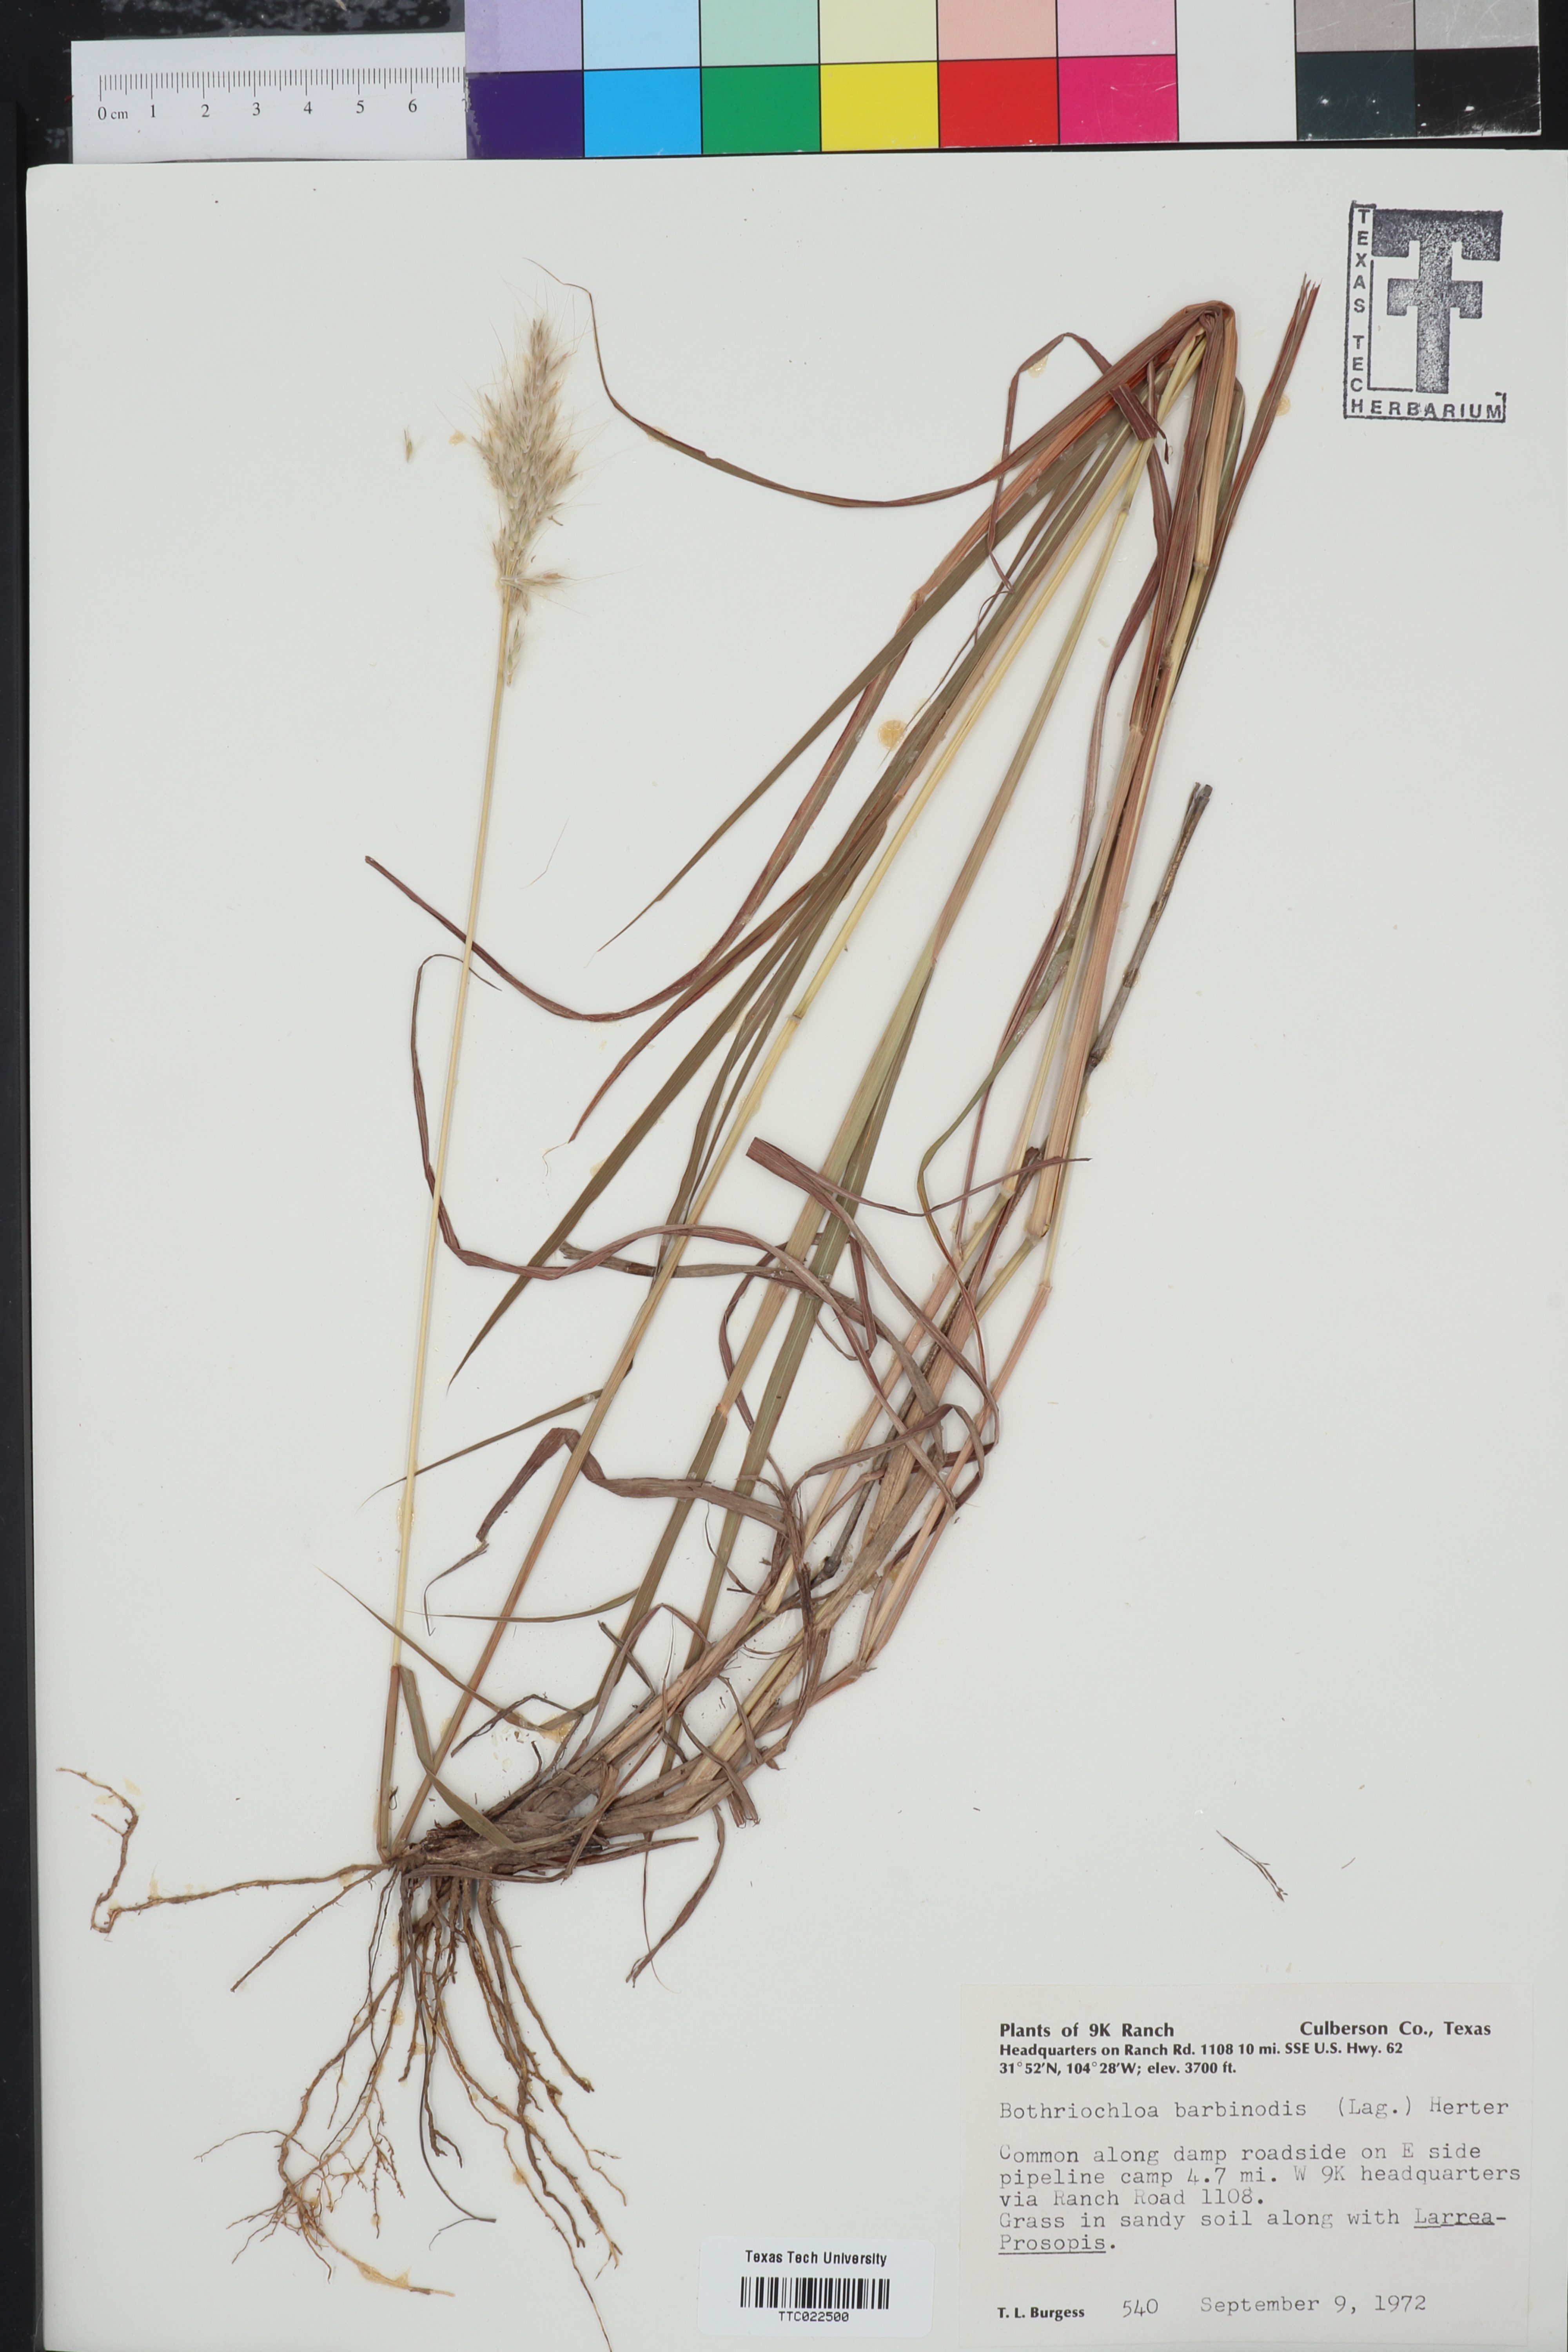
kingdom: Plantae
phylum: Tracheophyta
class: Liliopsida
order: Poales
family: Poaceae
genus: Bothriochloa
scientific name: Bothriochloa barbinodis
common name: Cane bluestem
